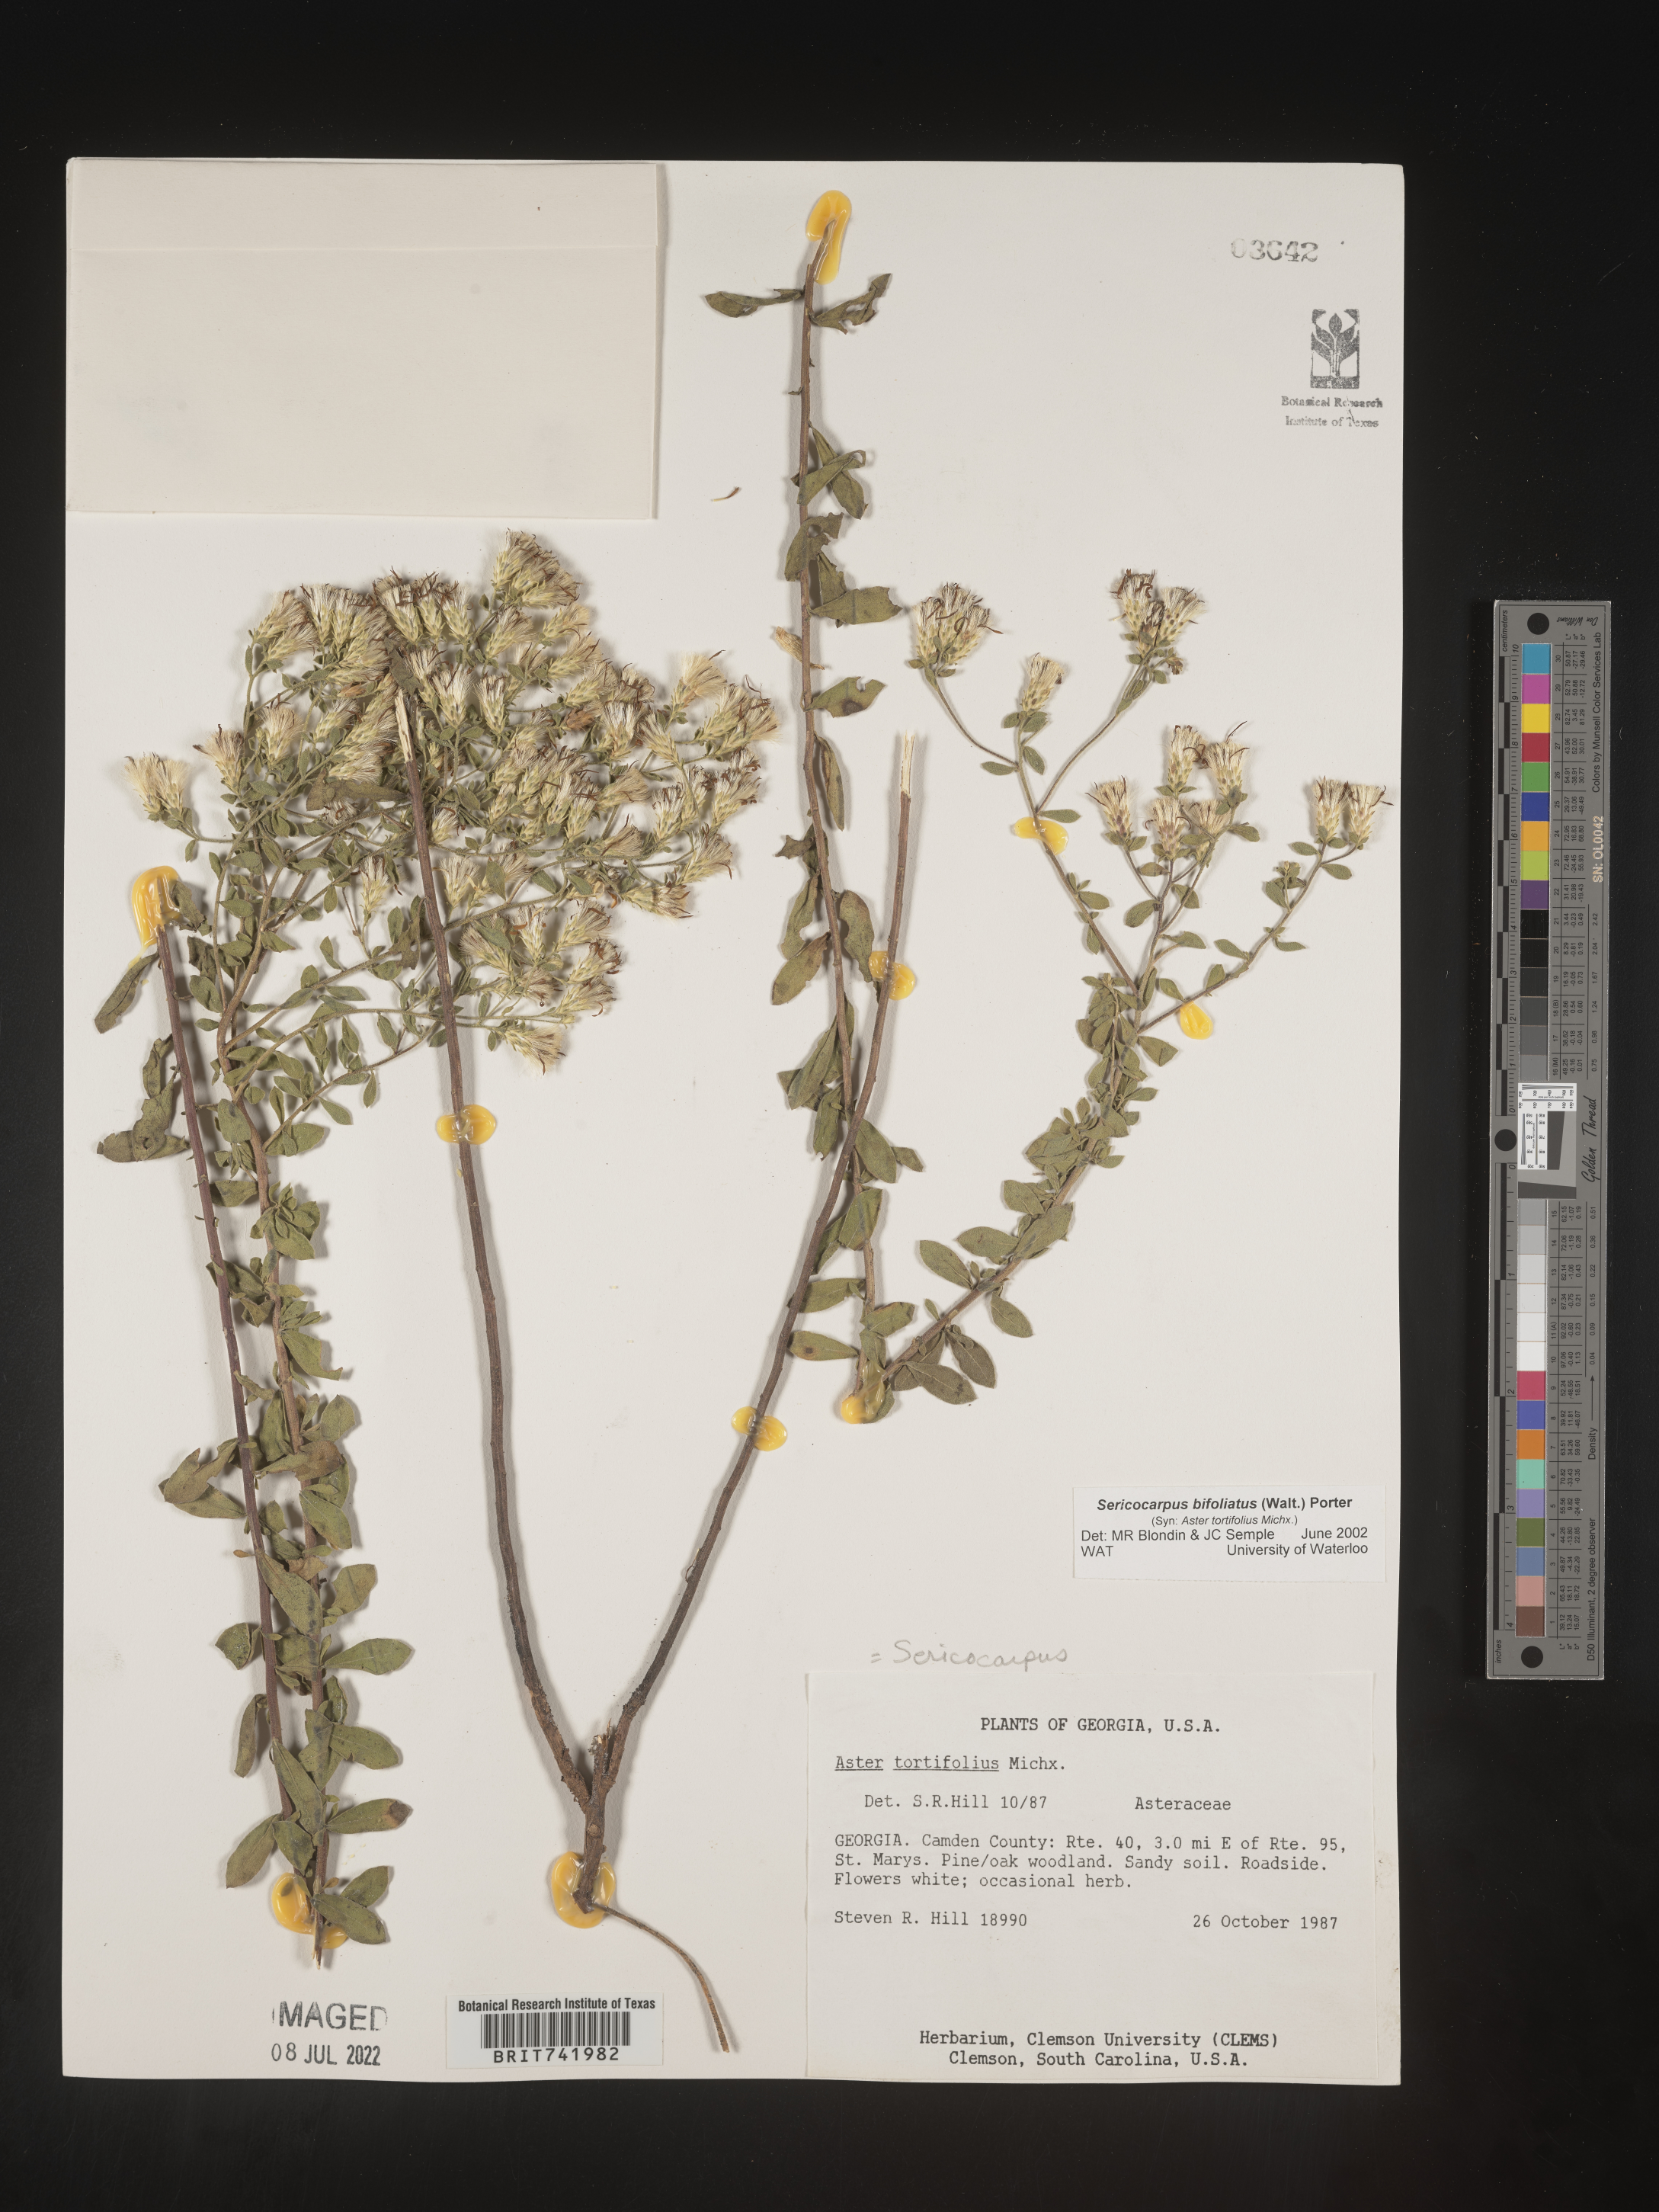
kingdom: Plantae
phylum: Tracheophyta
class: Magnoliopsida
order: Asterales
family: Asteraceae
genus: Sericocarpus
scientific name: Sericocarpus tortifolius
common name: Dixie aster
